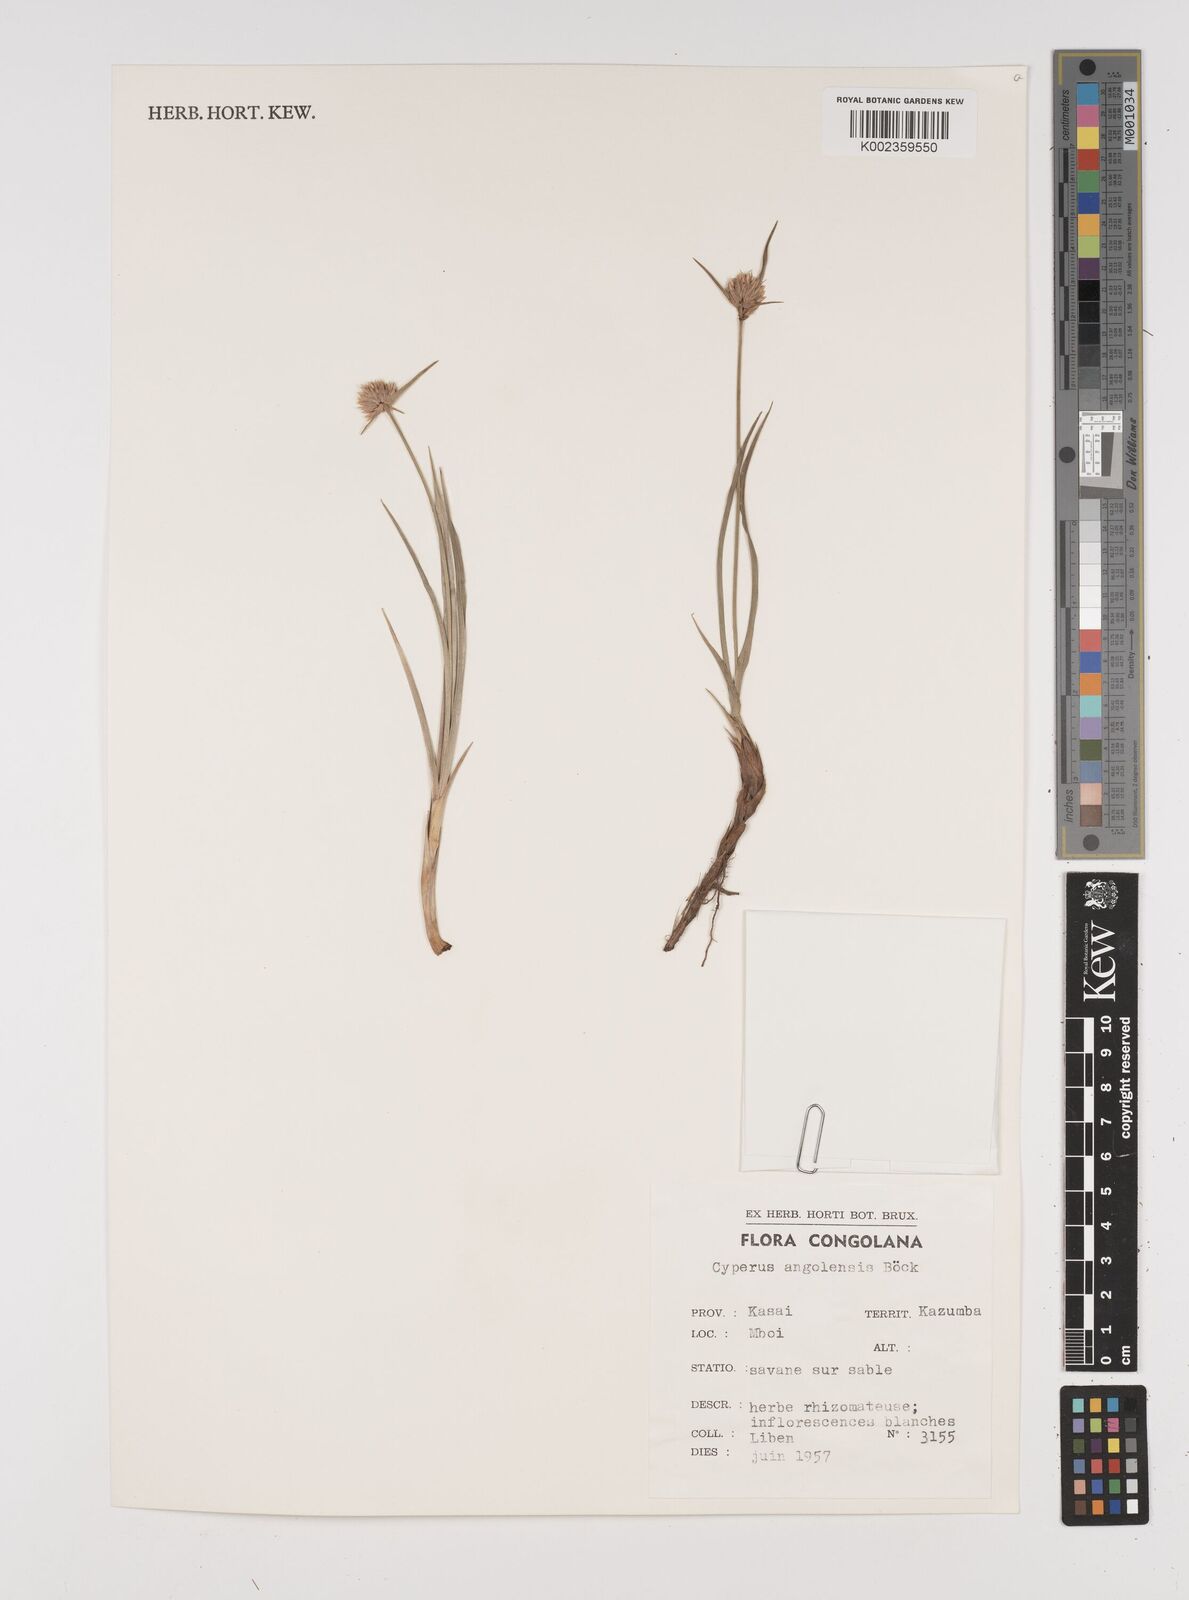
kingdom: Plantae
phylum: Tracheophyta
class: Liliopsida
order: Poales
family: Cyperaceae
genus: Cyperus
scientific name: Cyperus angolensis
